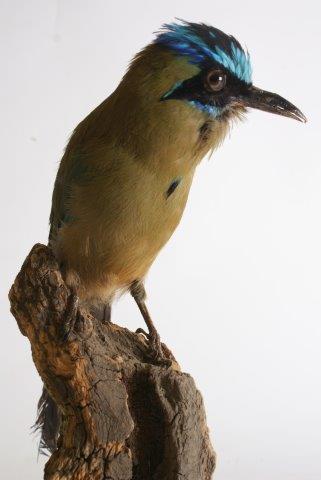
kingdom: Animalia
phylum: Chordata
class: Aves
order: Coraciiformes
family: Coraciidae
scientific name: Coraciidae
